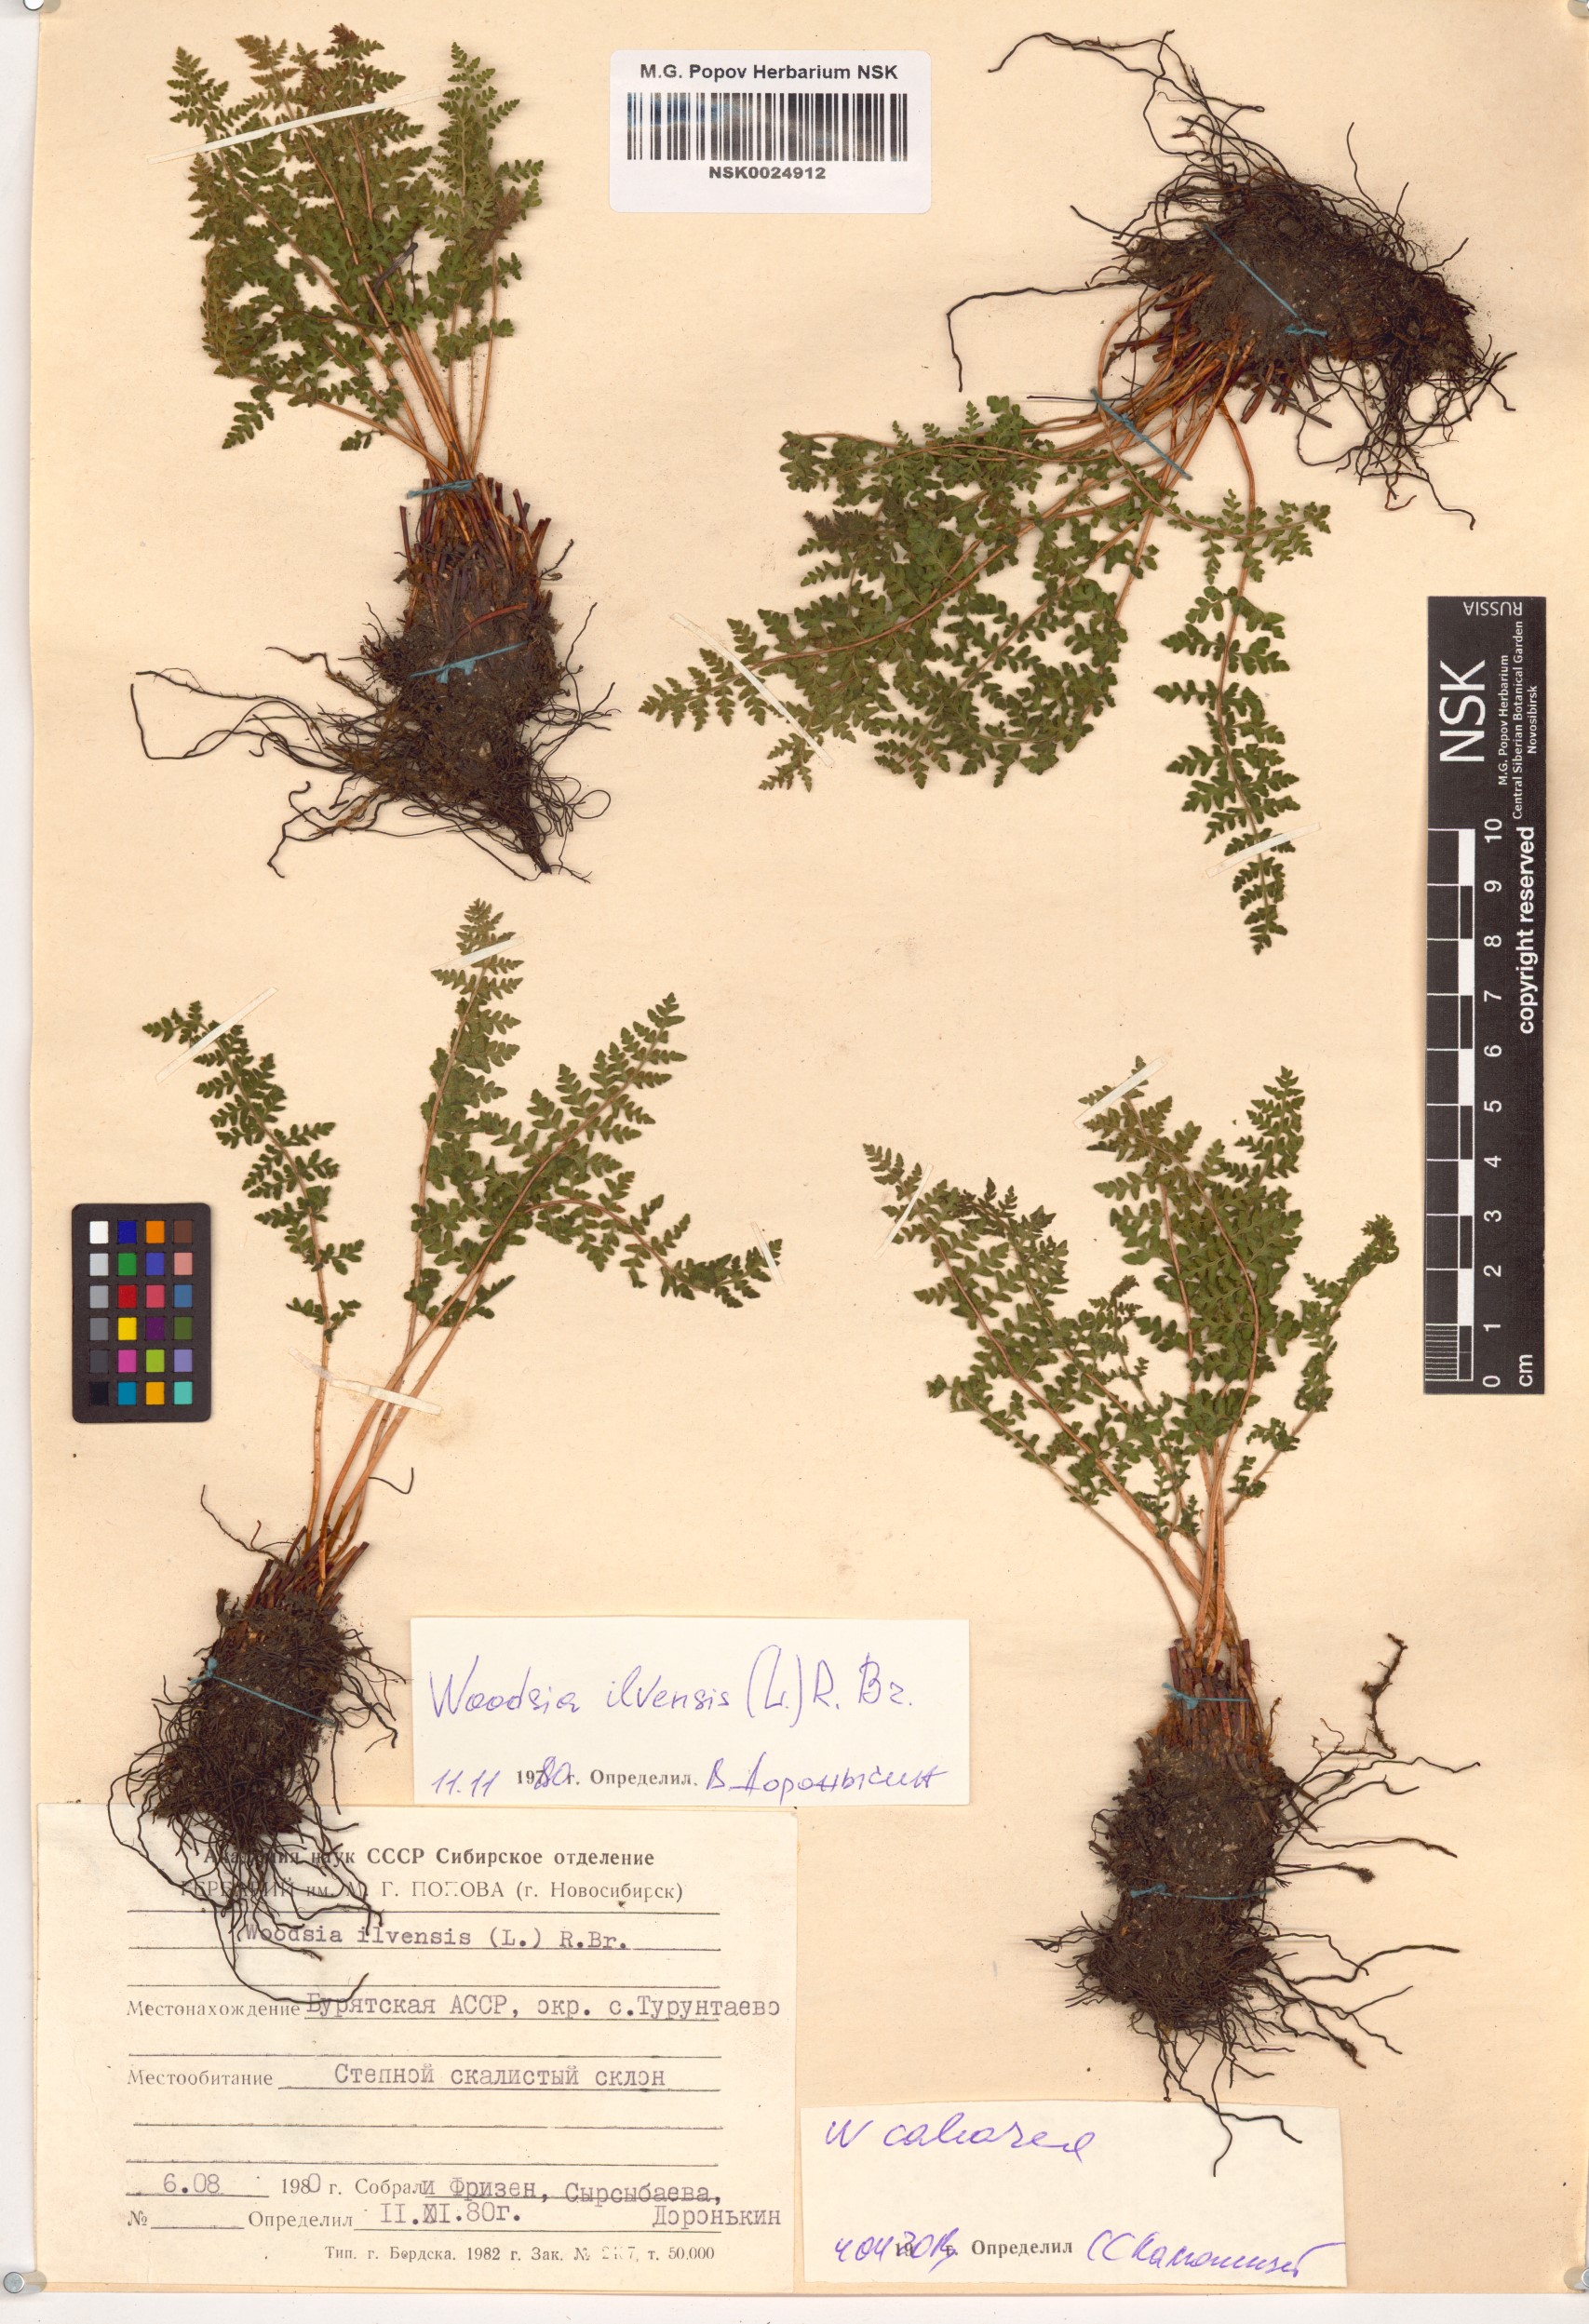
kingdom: Plantae
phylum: Tracheophyta
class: Polypodiopsida
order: Polypodiales
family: Woodsiaceae
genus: Woodsia
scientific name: Woodsia calcarea
